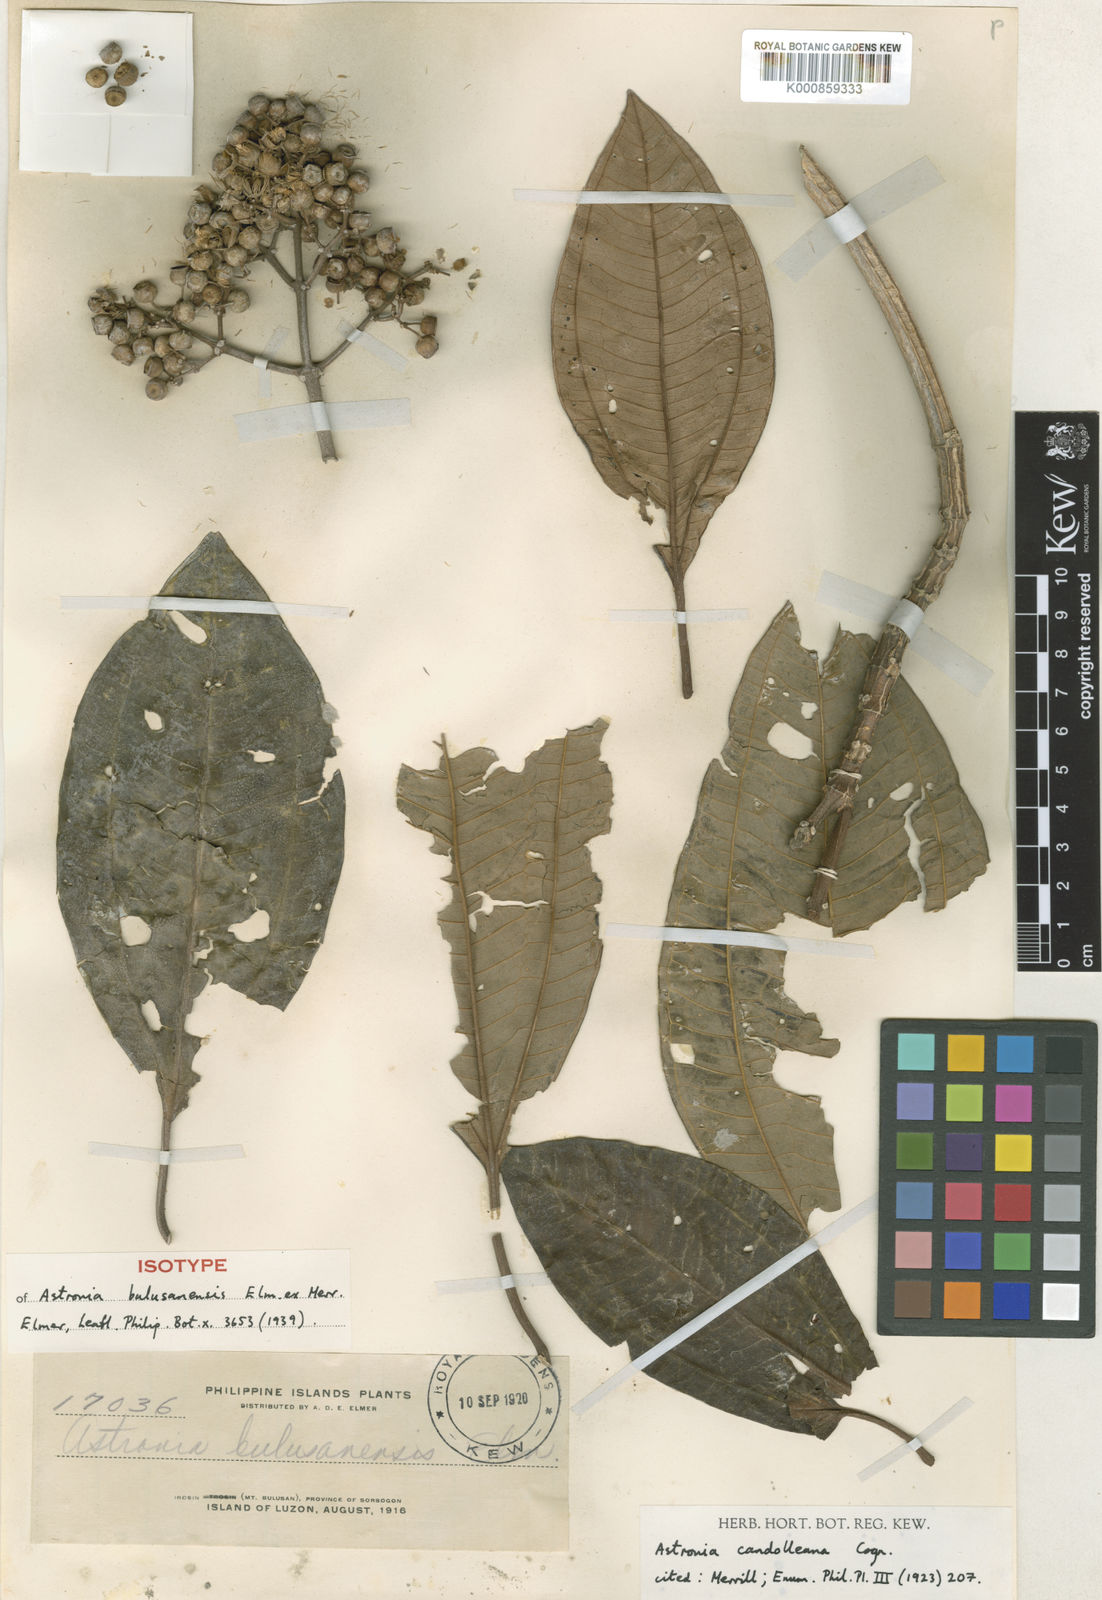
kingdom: Plantae
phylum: Tracheophyta
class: Magnoliopsida
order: Myrtales
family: Melastomataceae
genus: Astronia
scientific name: Astronia candolleana
